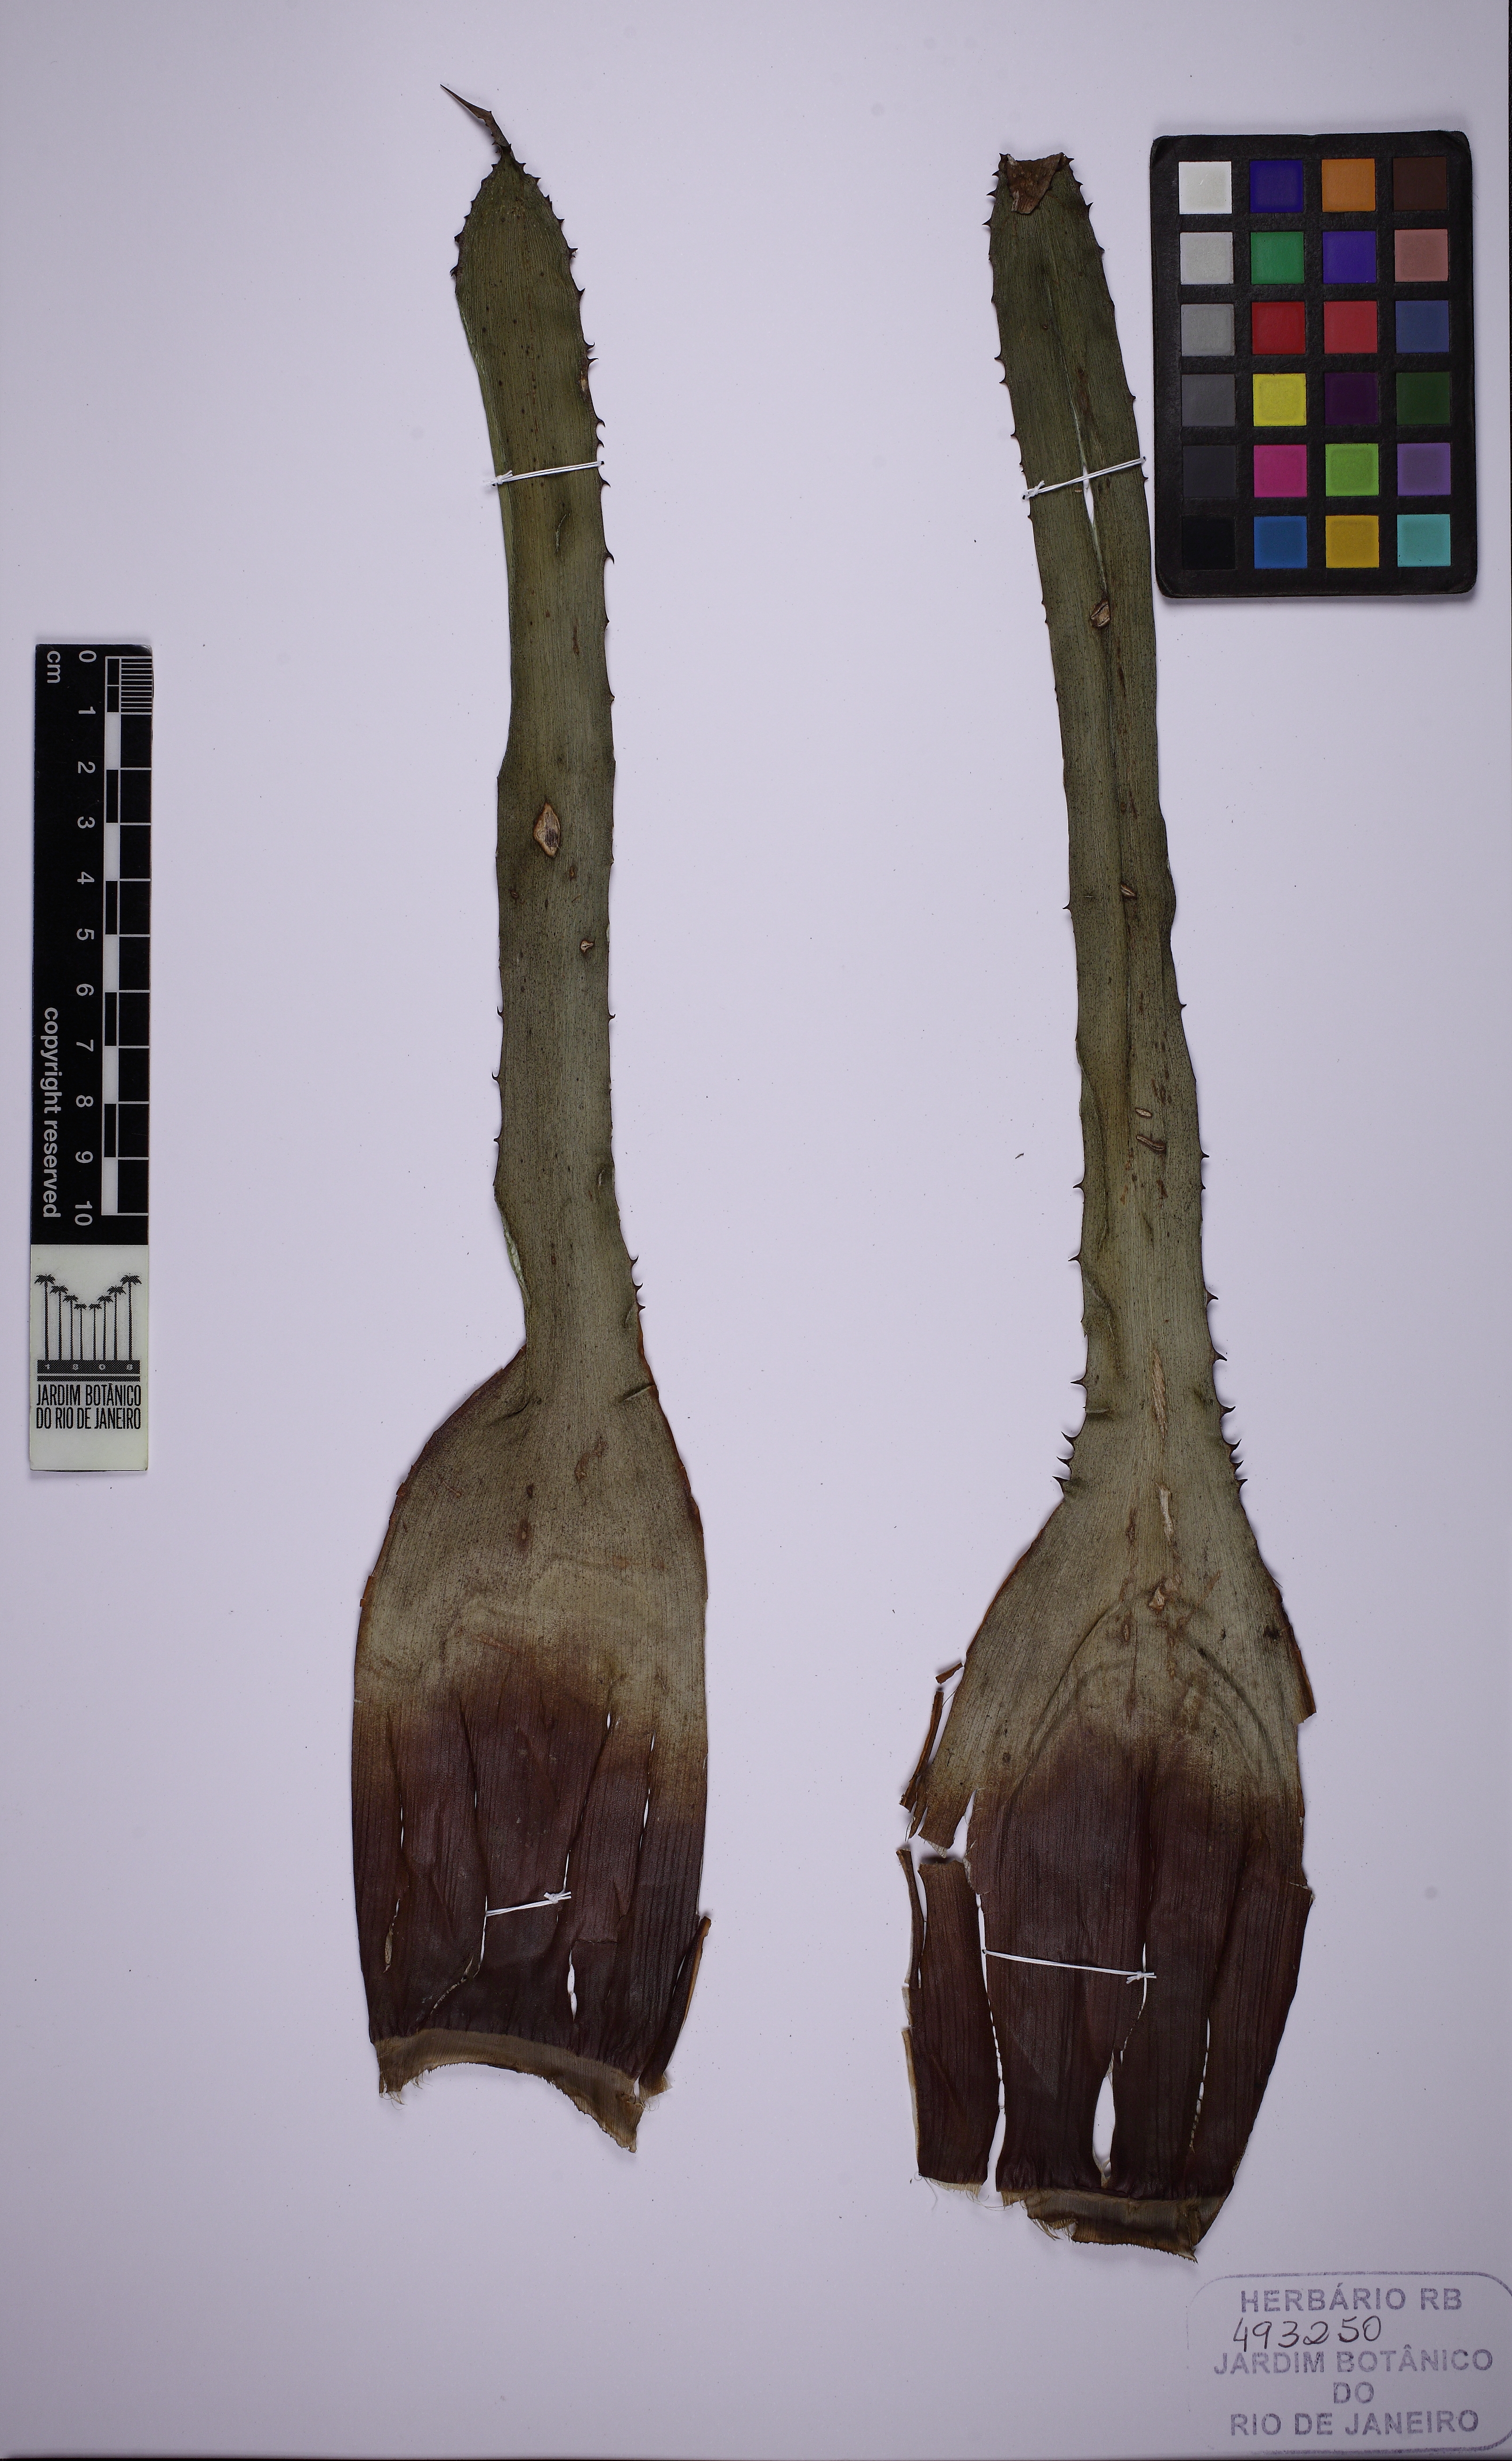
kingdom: Plantae
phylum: Tracheophyta
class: Liliopsida
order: Poales
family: Bromeliaceae
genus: Hohenbergia
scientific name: Hohenbergia igatuensis
